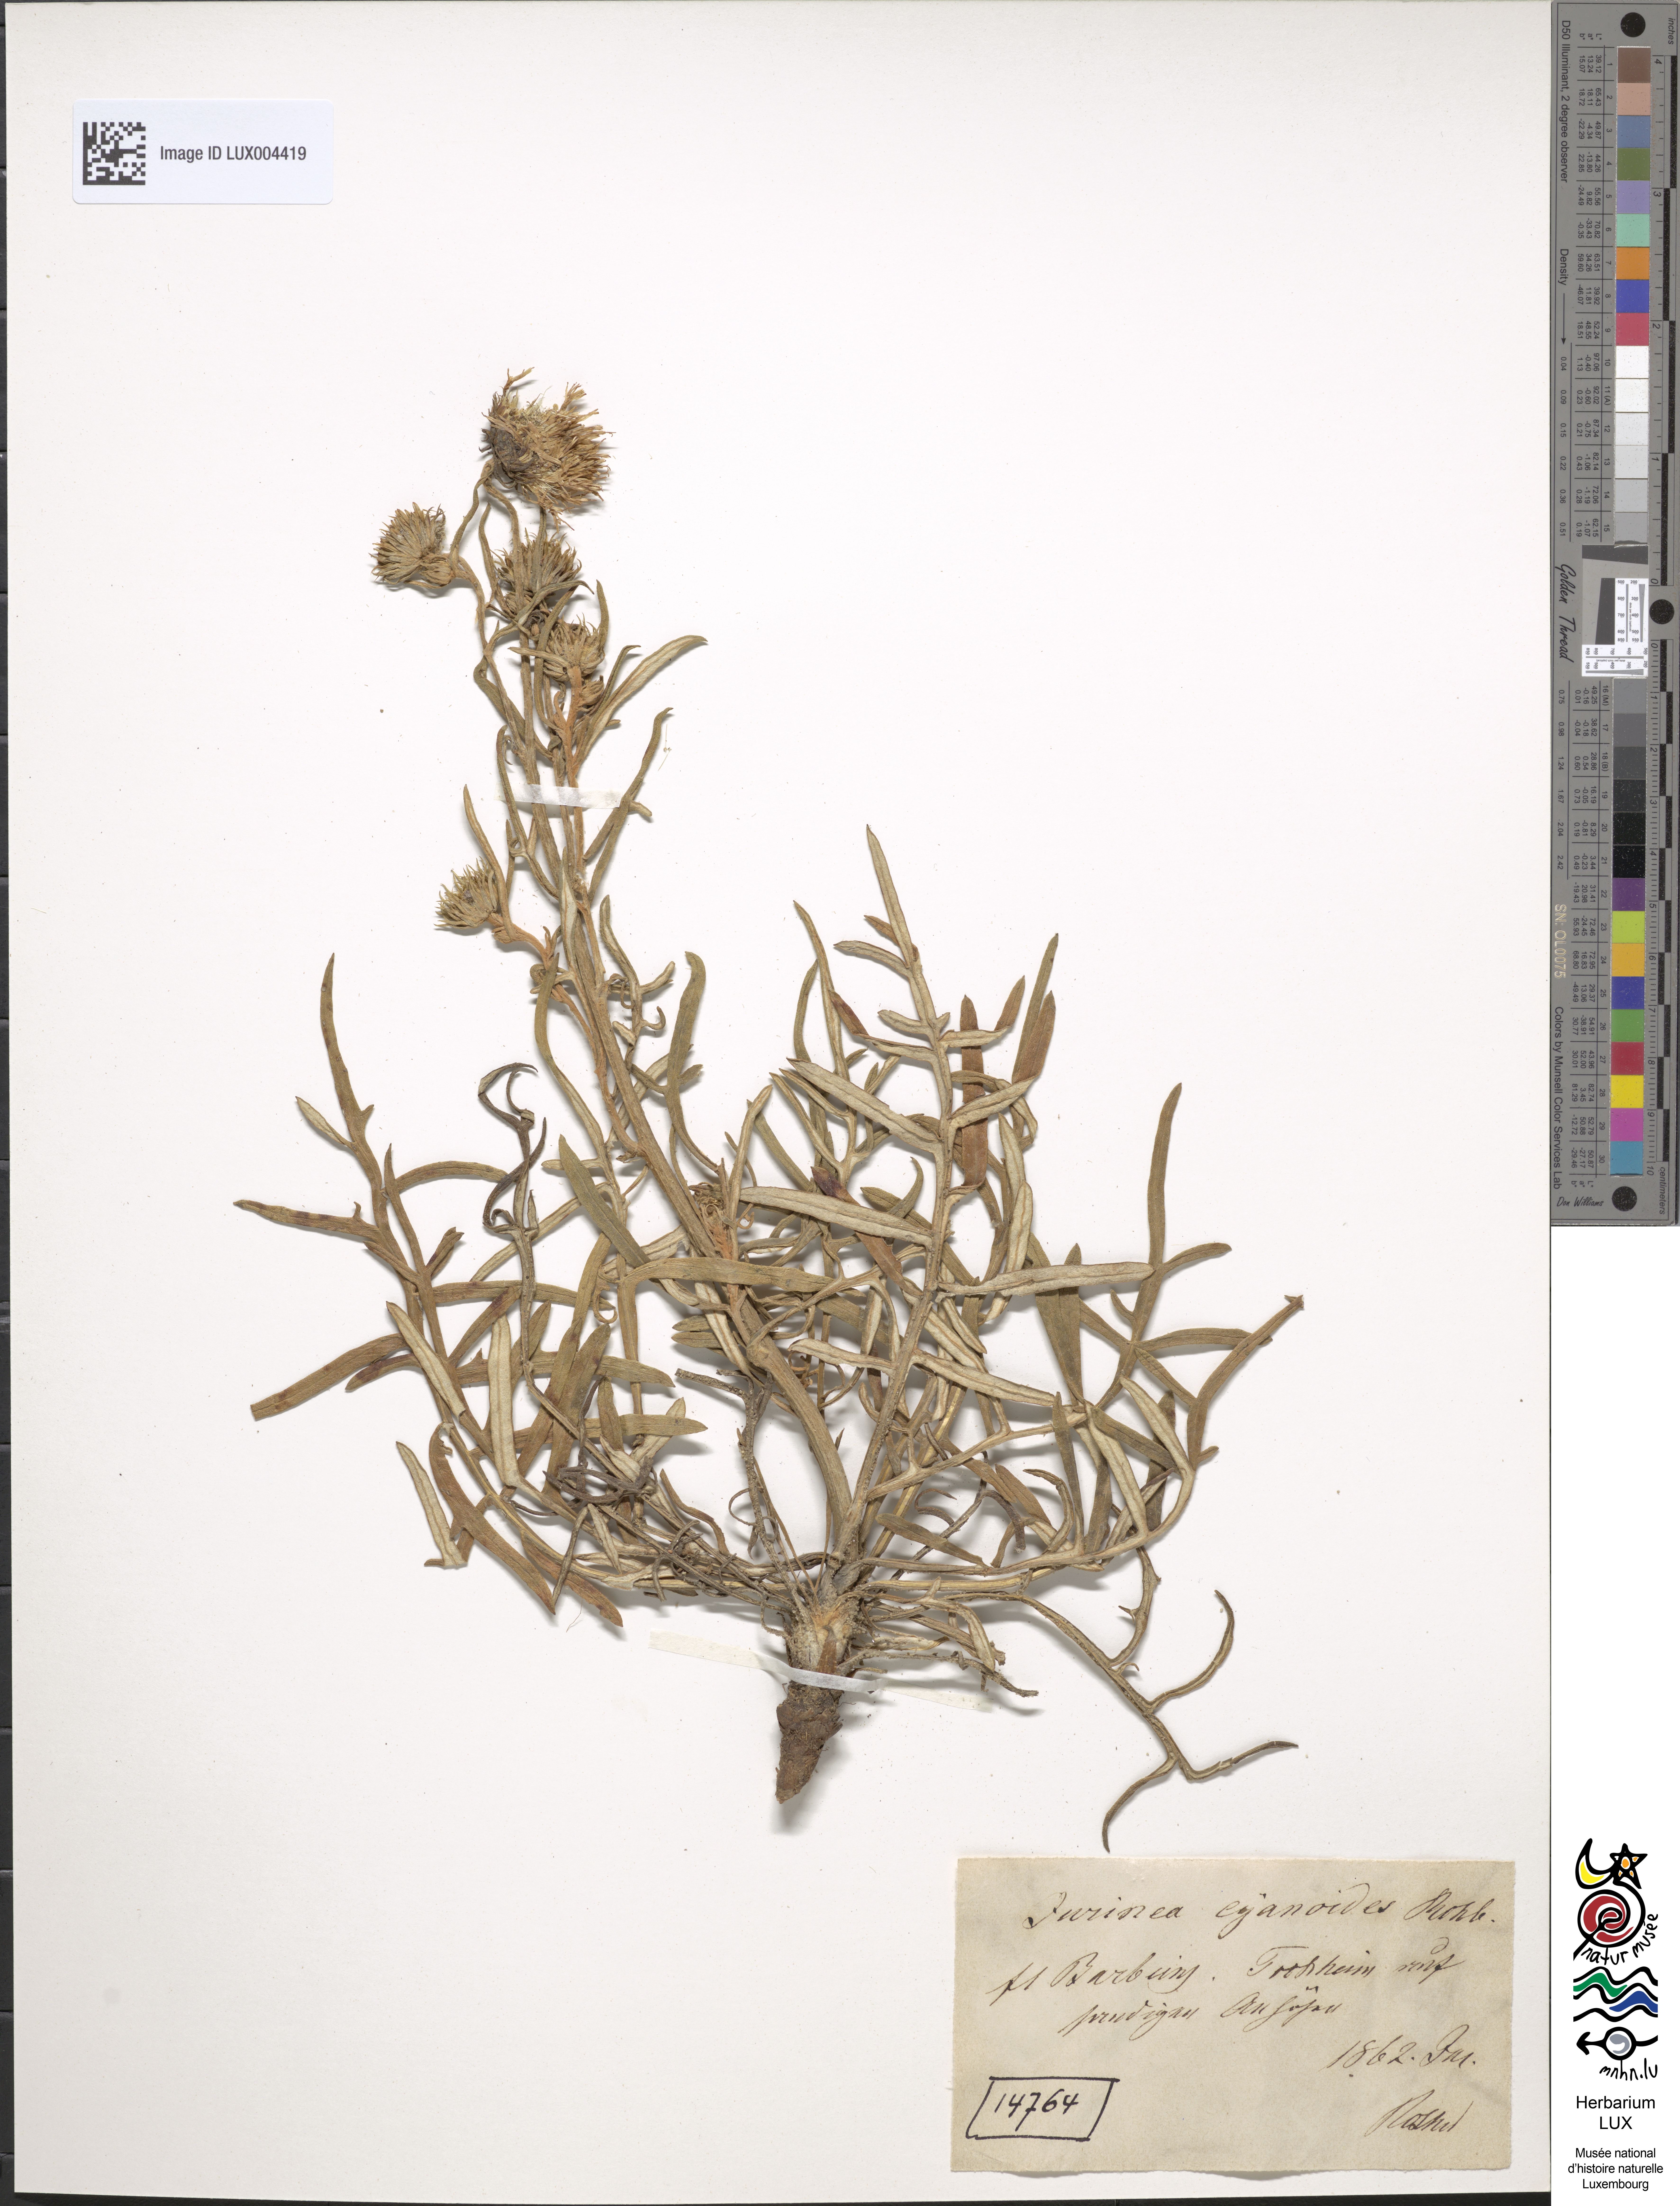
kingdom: Plantae
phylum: Tracheophyta
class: Magnoliopsida
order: Asterales
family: Asteraceae
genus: Jurinea
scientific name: Jurinea cyanoides
